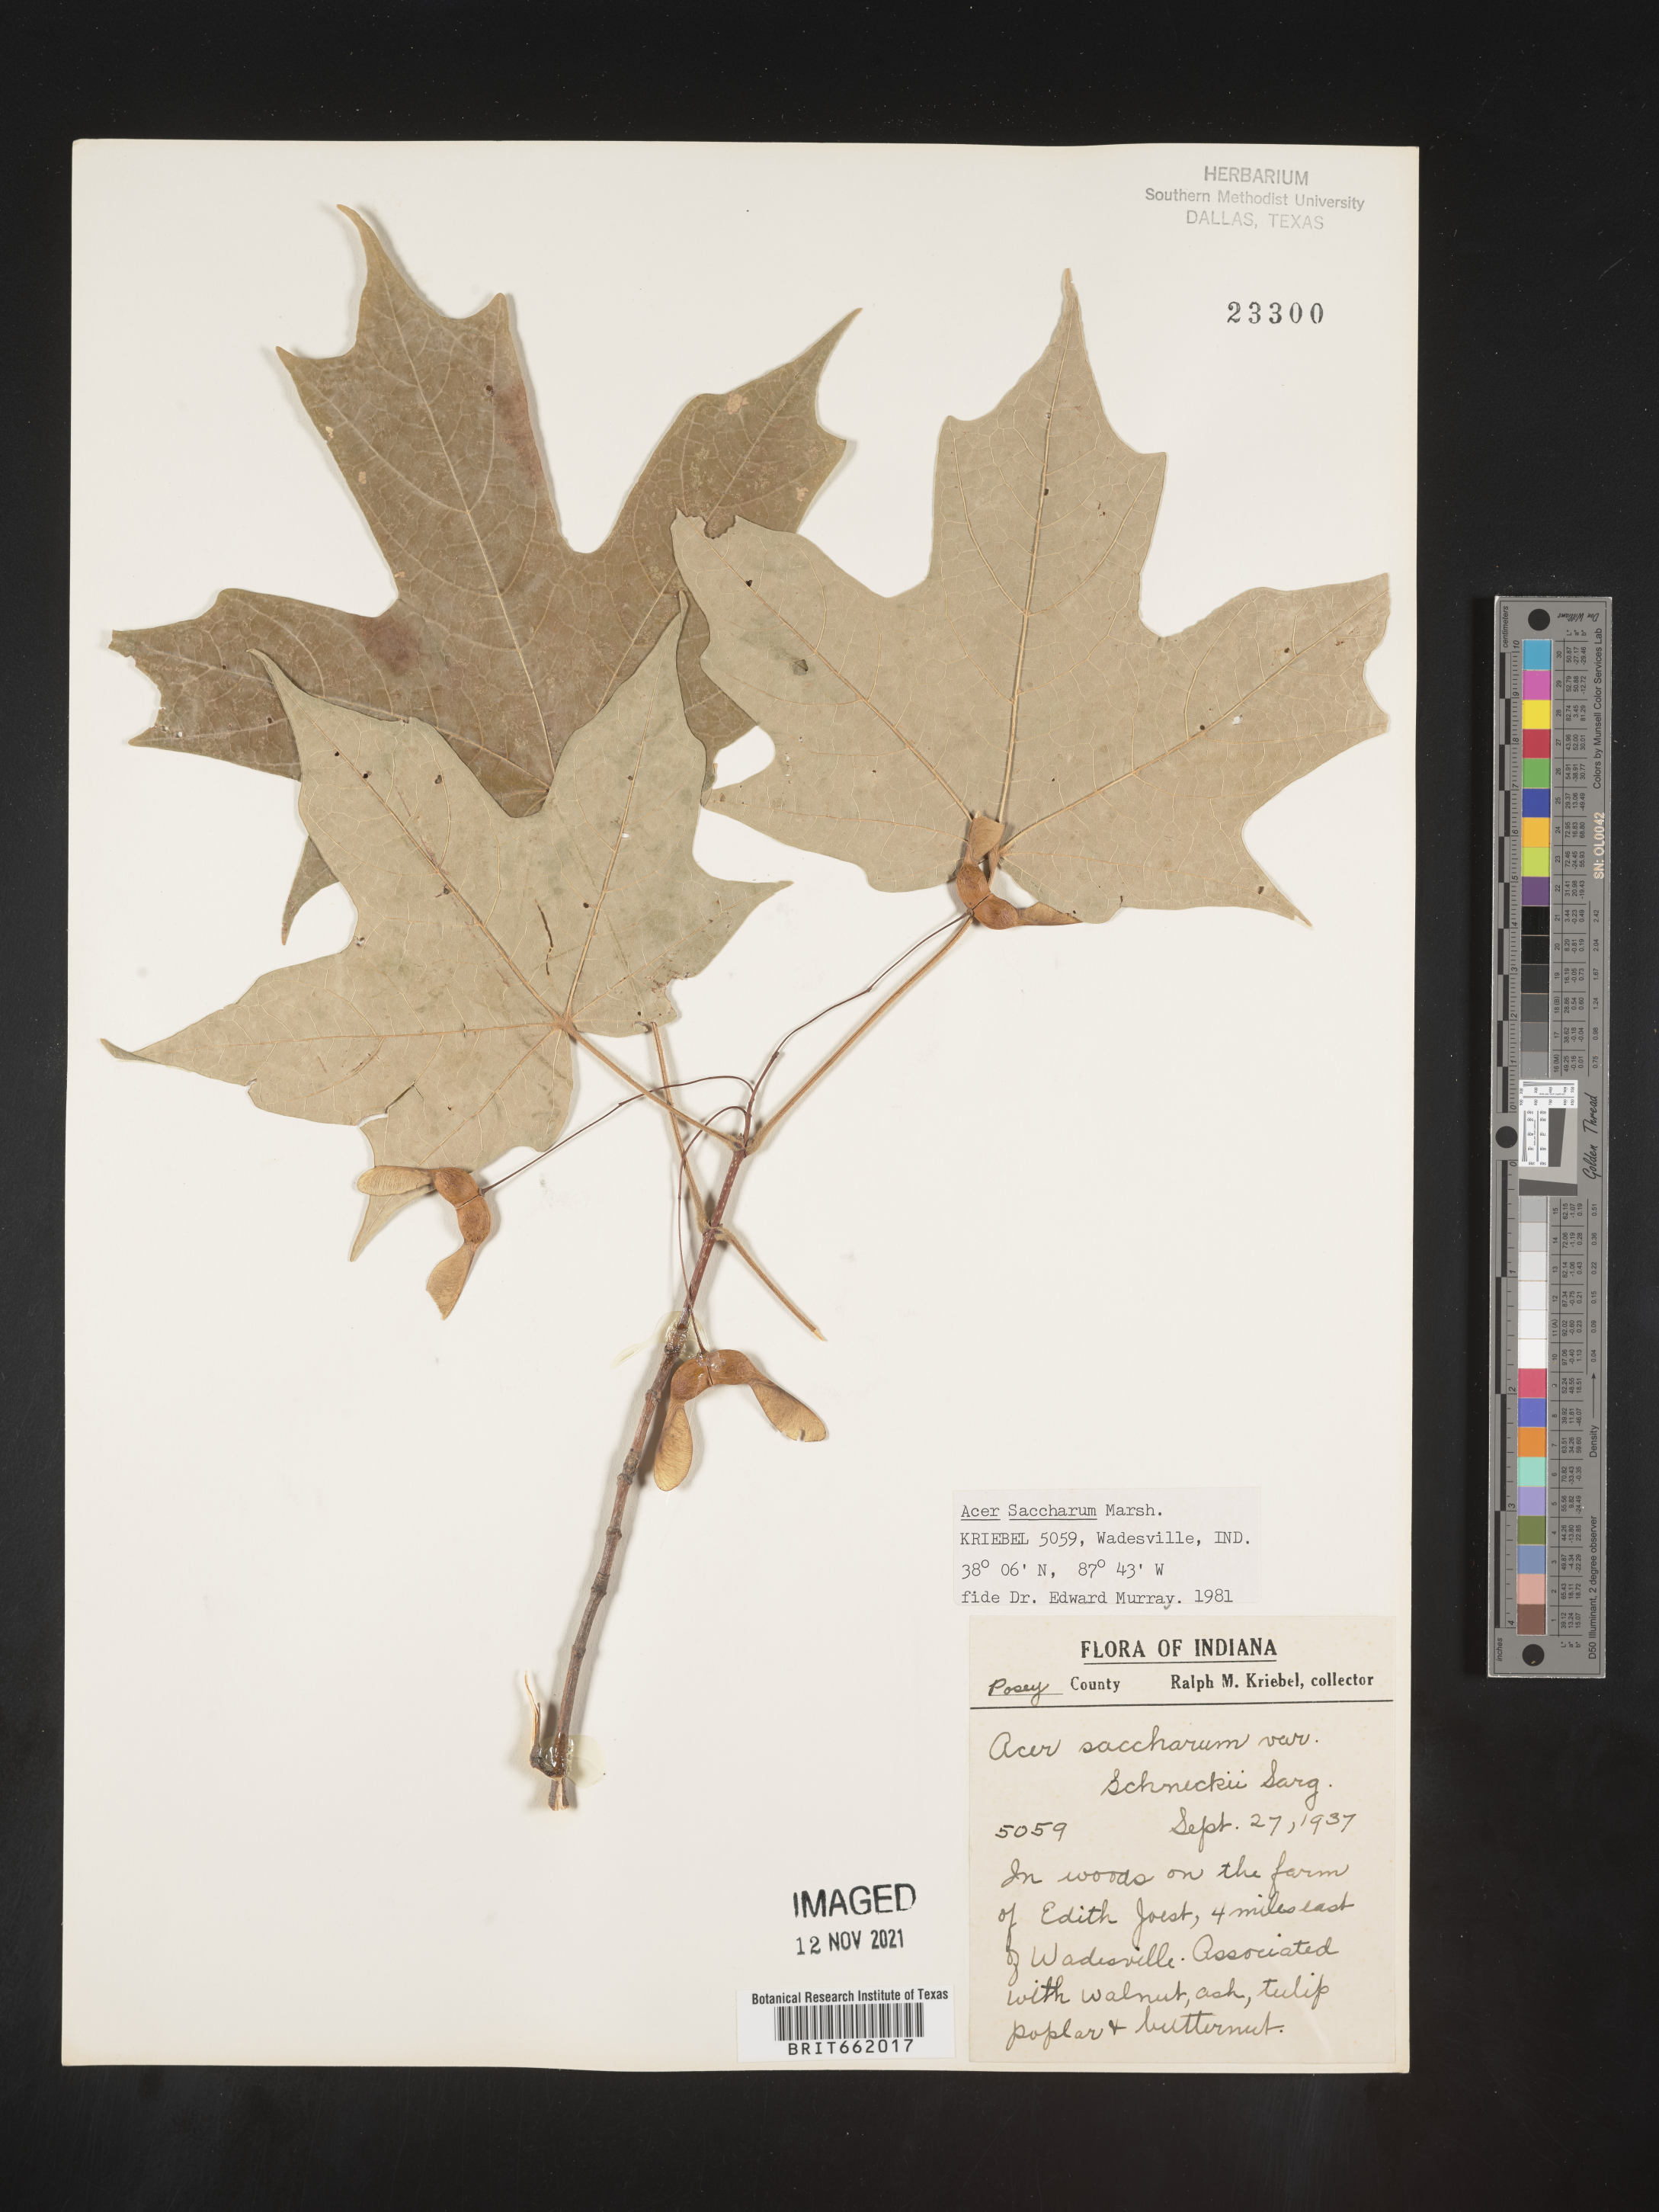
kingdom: Plantae
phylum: Tracheophyta
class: Magnoliopsida
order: Sapindales
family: Sapindaceae
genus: Acer
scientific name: Acer saccharum
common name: Sugar maple
